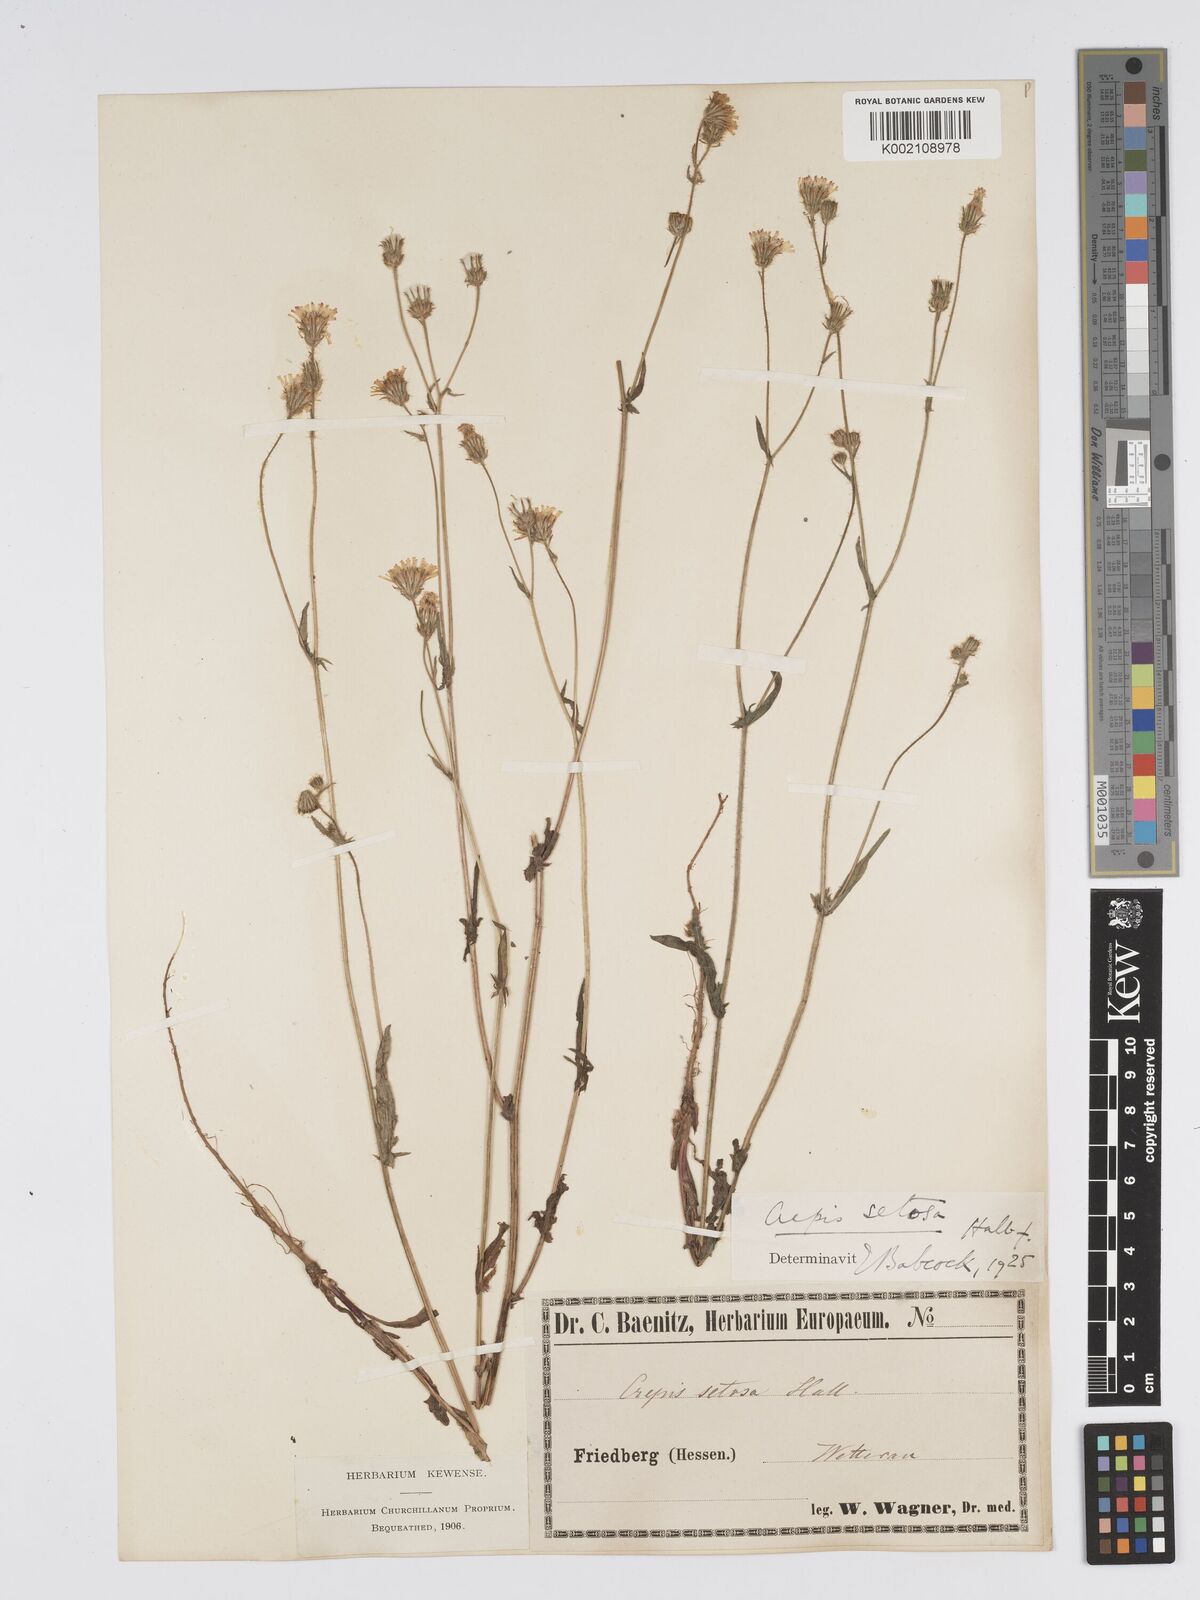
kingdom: Plantae
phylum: Tracheophyta
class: Magnoliopsida
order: Asterales
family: Asteraceae
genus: Crepis
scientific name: Crepis setosa
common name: Bristly hawk's-beard
